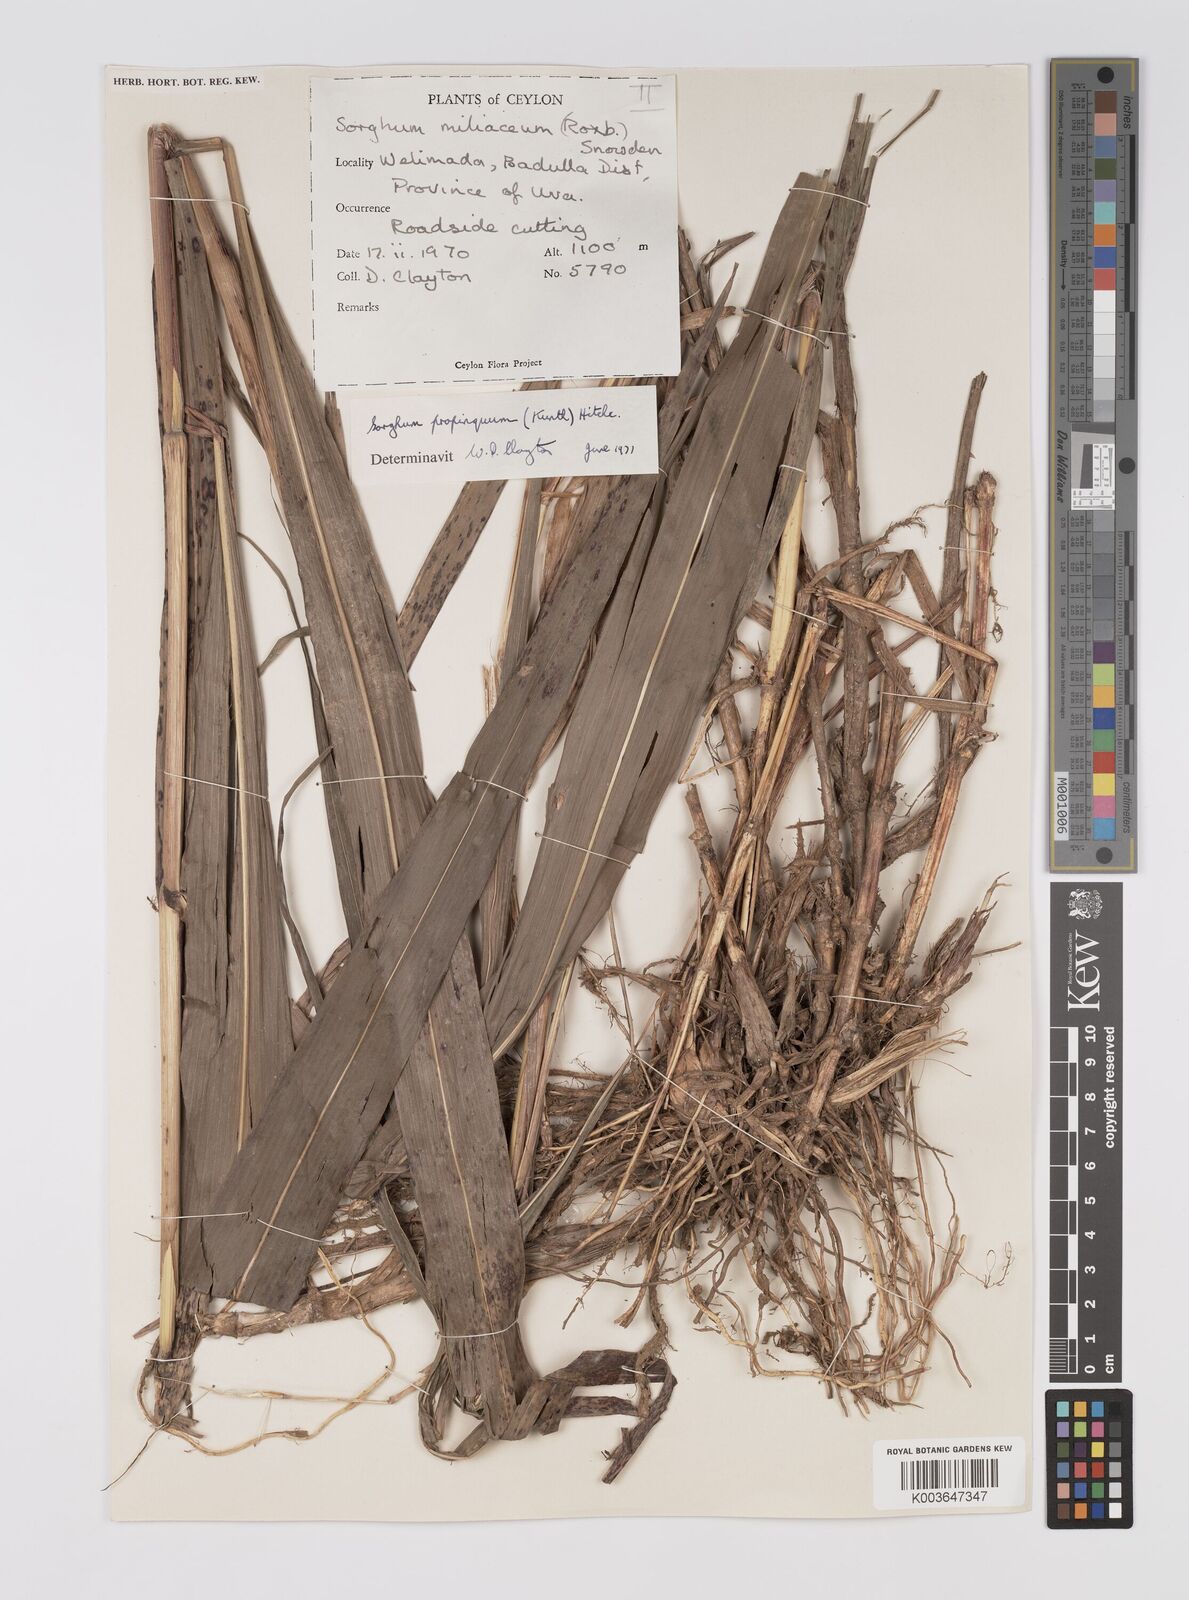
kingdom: Plantae
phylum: Tracheophyta
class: Liliopsida
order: Poales
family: Poaceae
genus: Sorghum
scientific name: Sorghum propinquum
